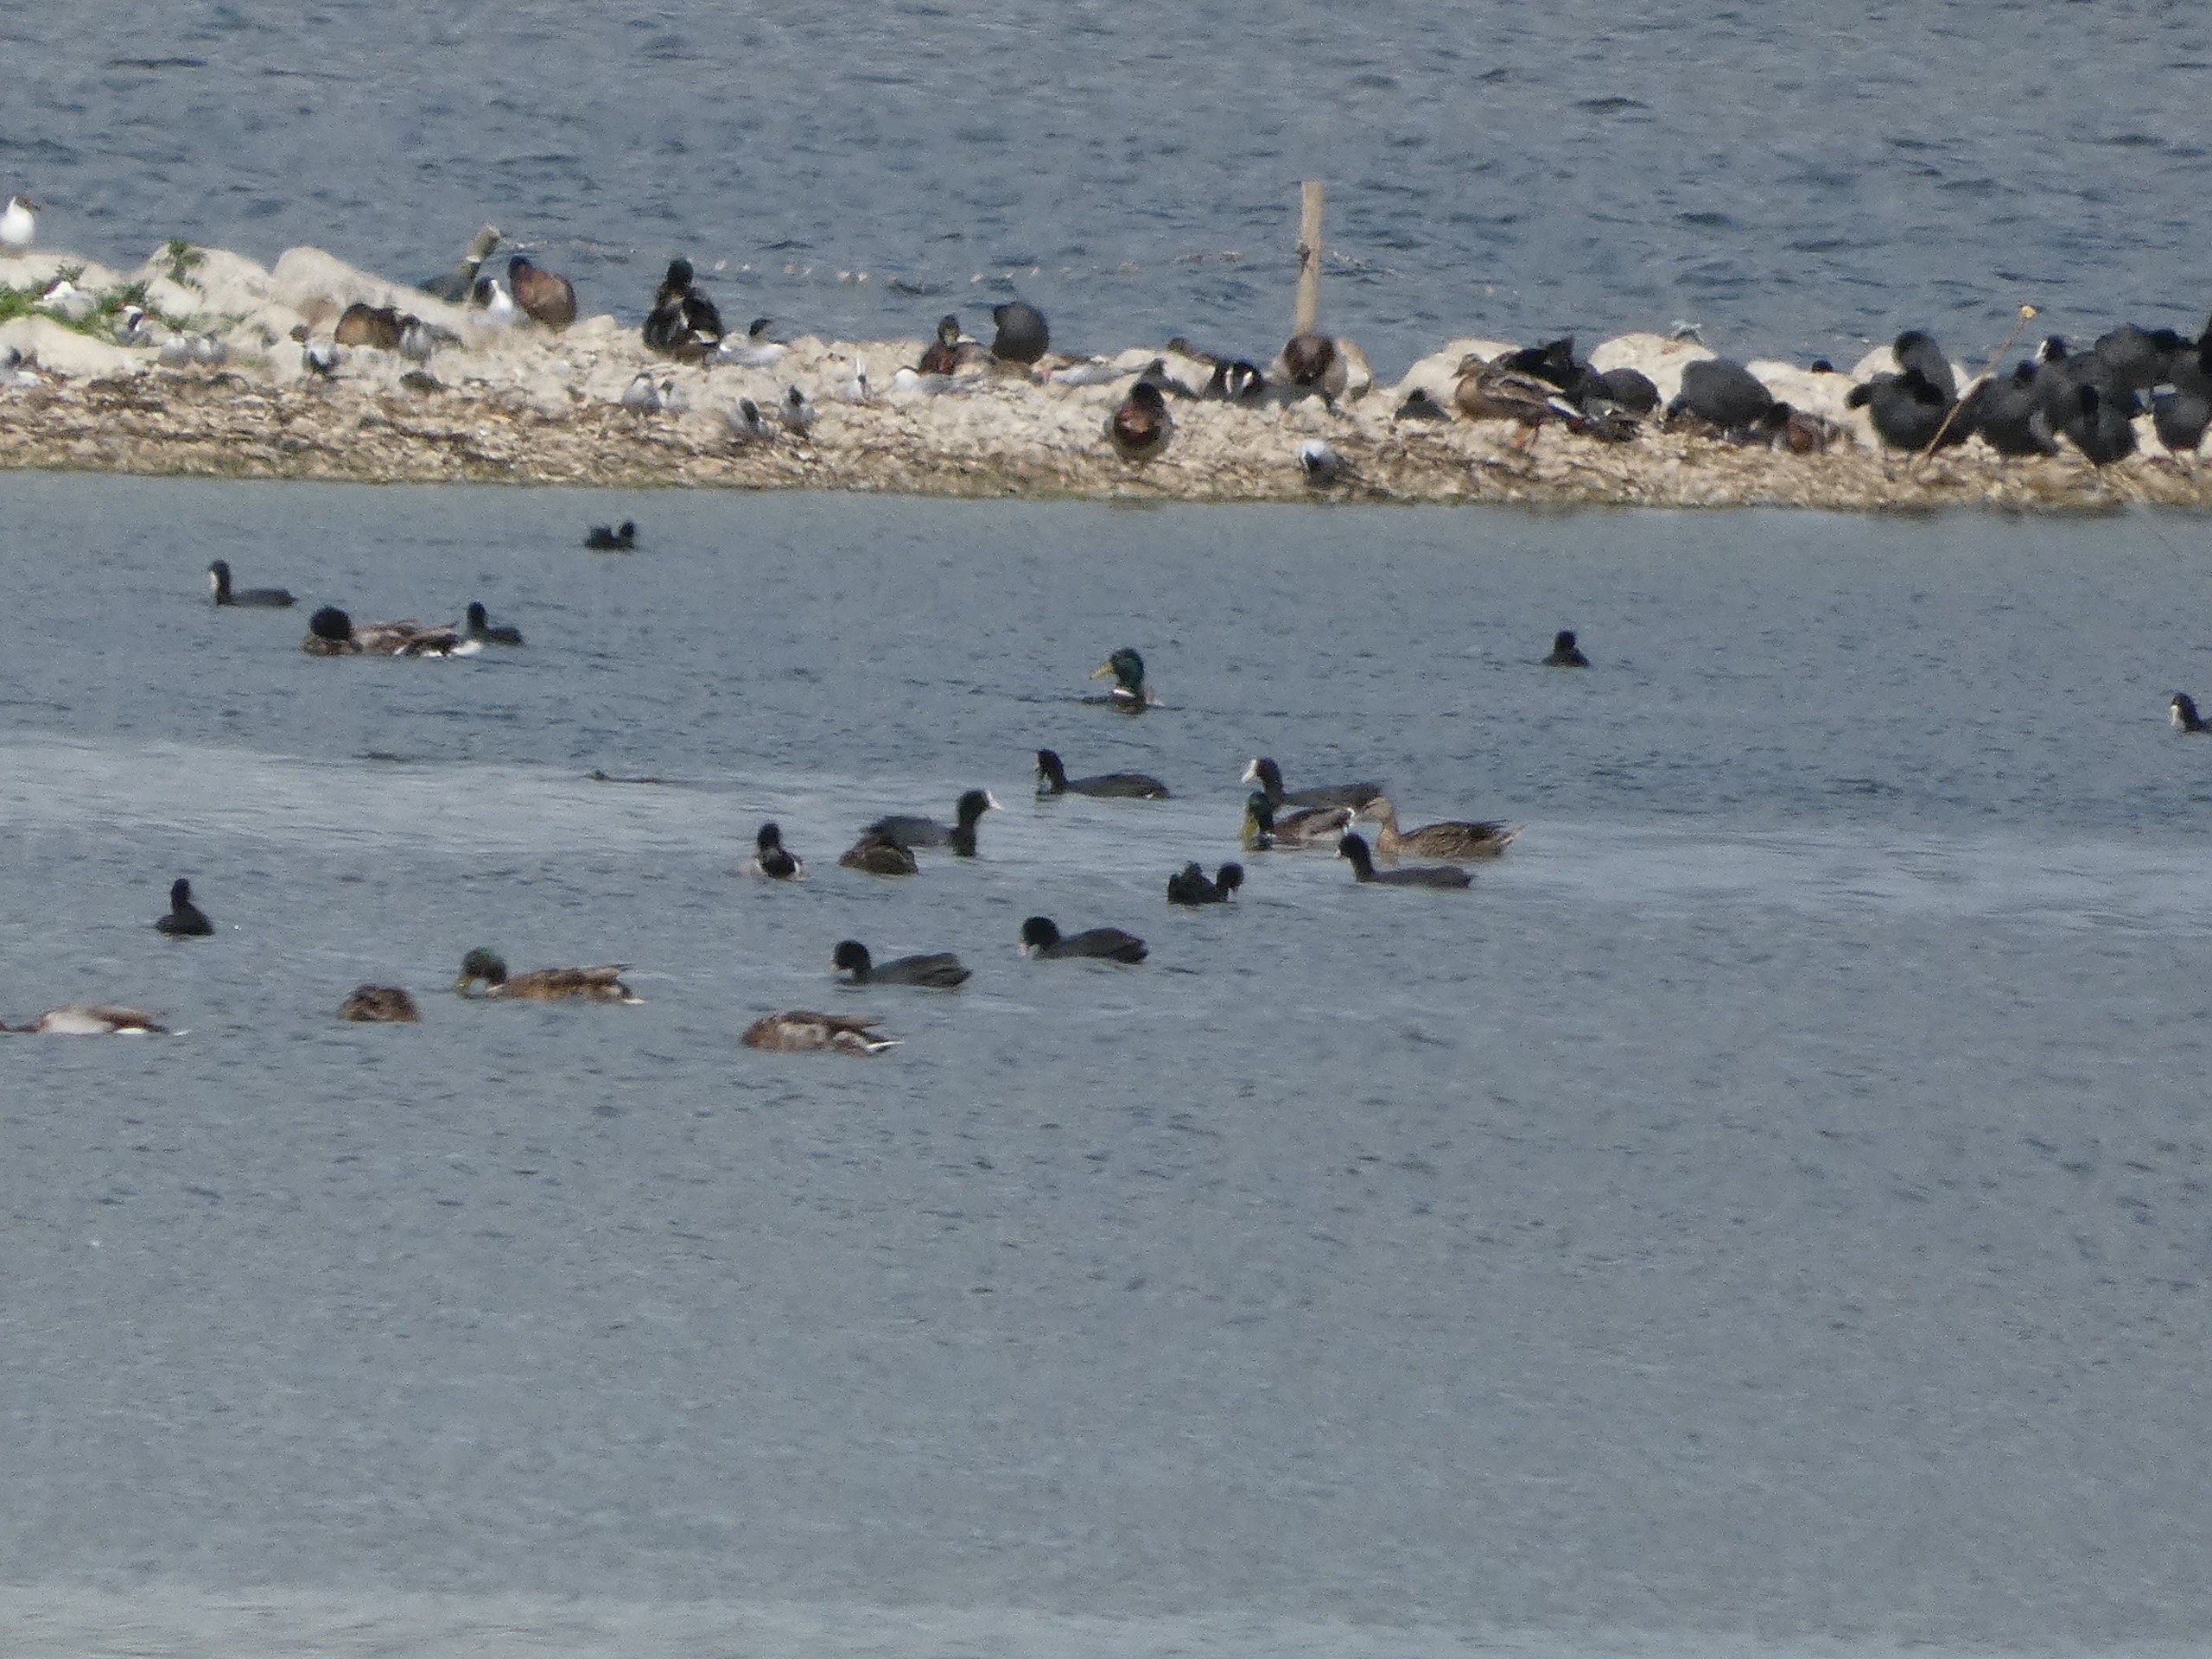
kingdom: Animalia
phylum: Chordata
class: Aves
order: Anseriformes
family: Anatidae
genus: Anas
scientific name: Anas platyrhynchos
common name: Gråand
